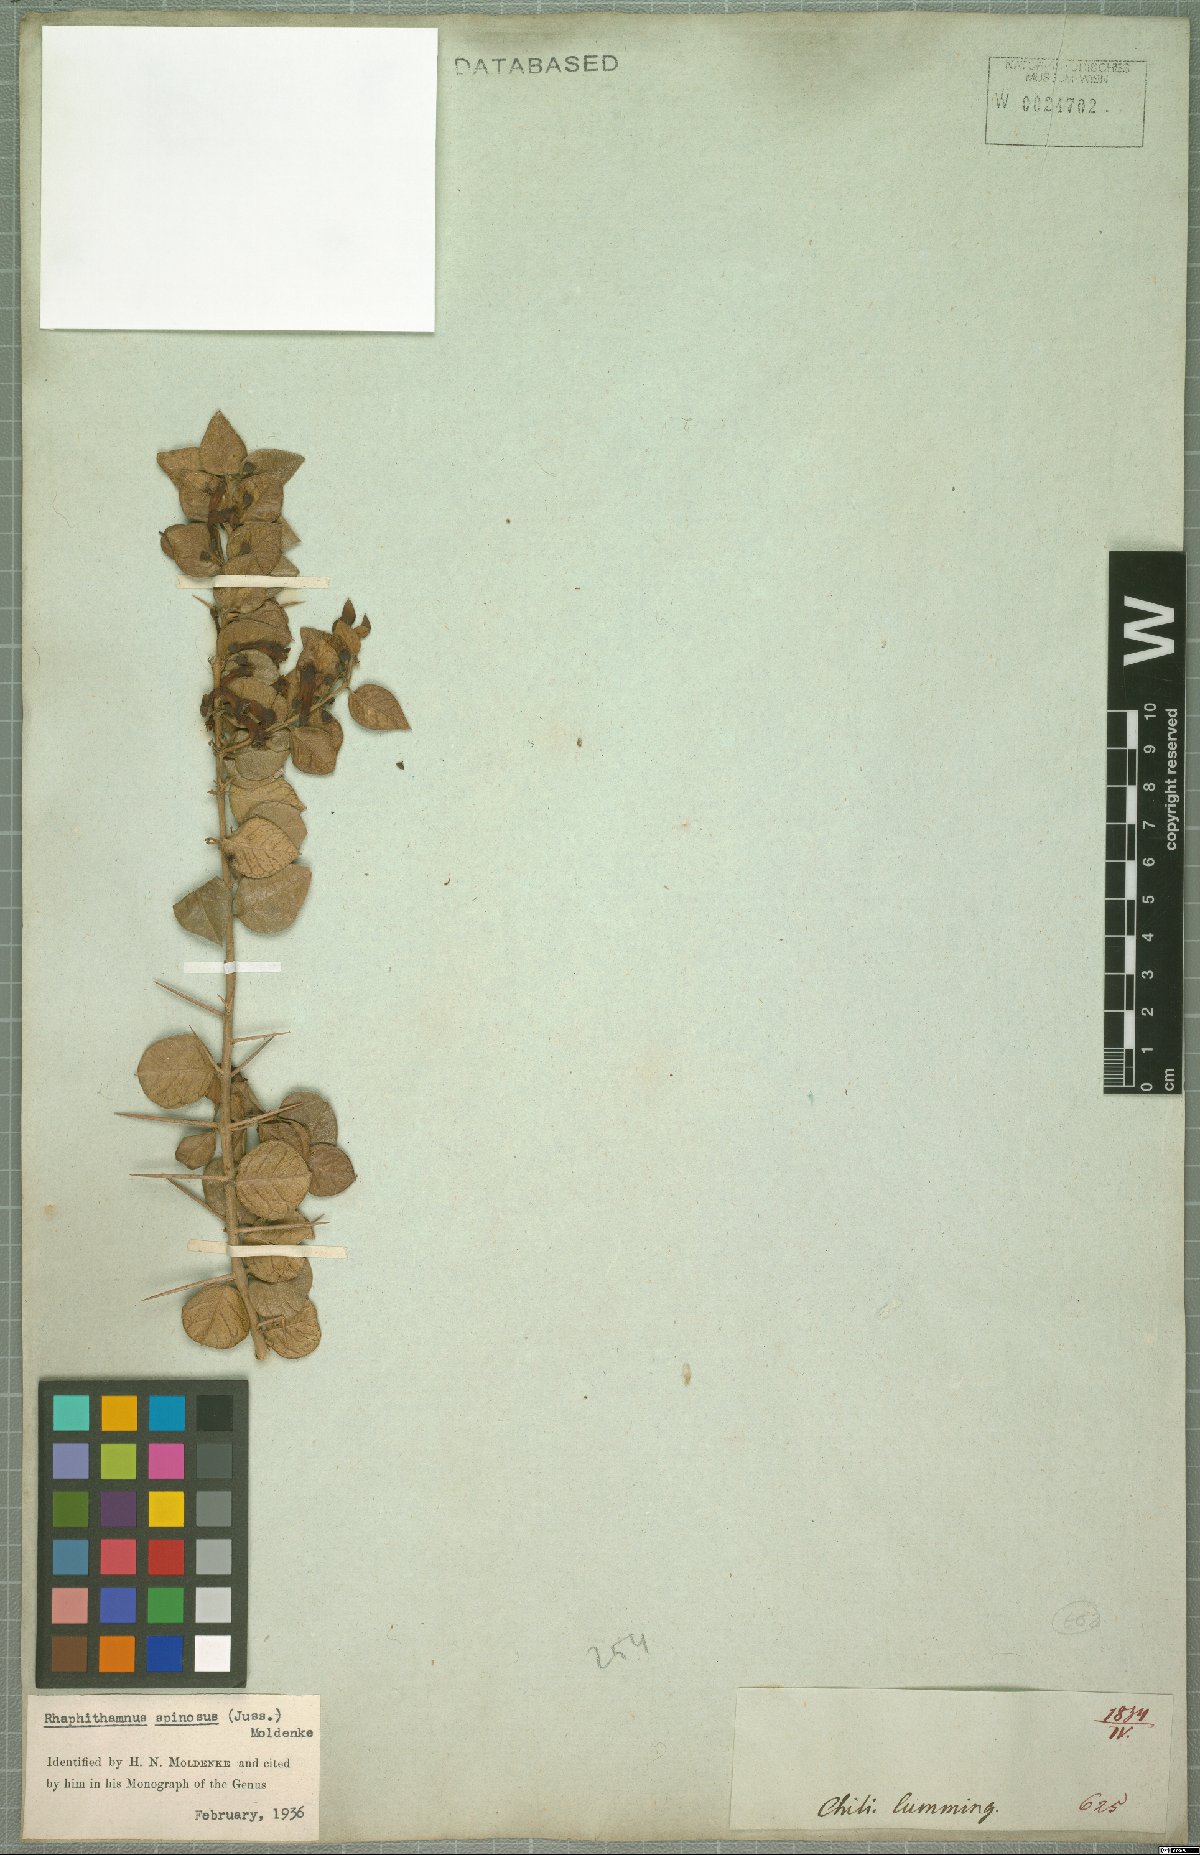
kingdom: Plantae
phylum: Tracheophyta
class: Magnoliopsida
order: Lamiales
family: Verbenaceae
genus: Rhaphithamnus
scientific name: Rhaphithamnus spinosus
